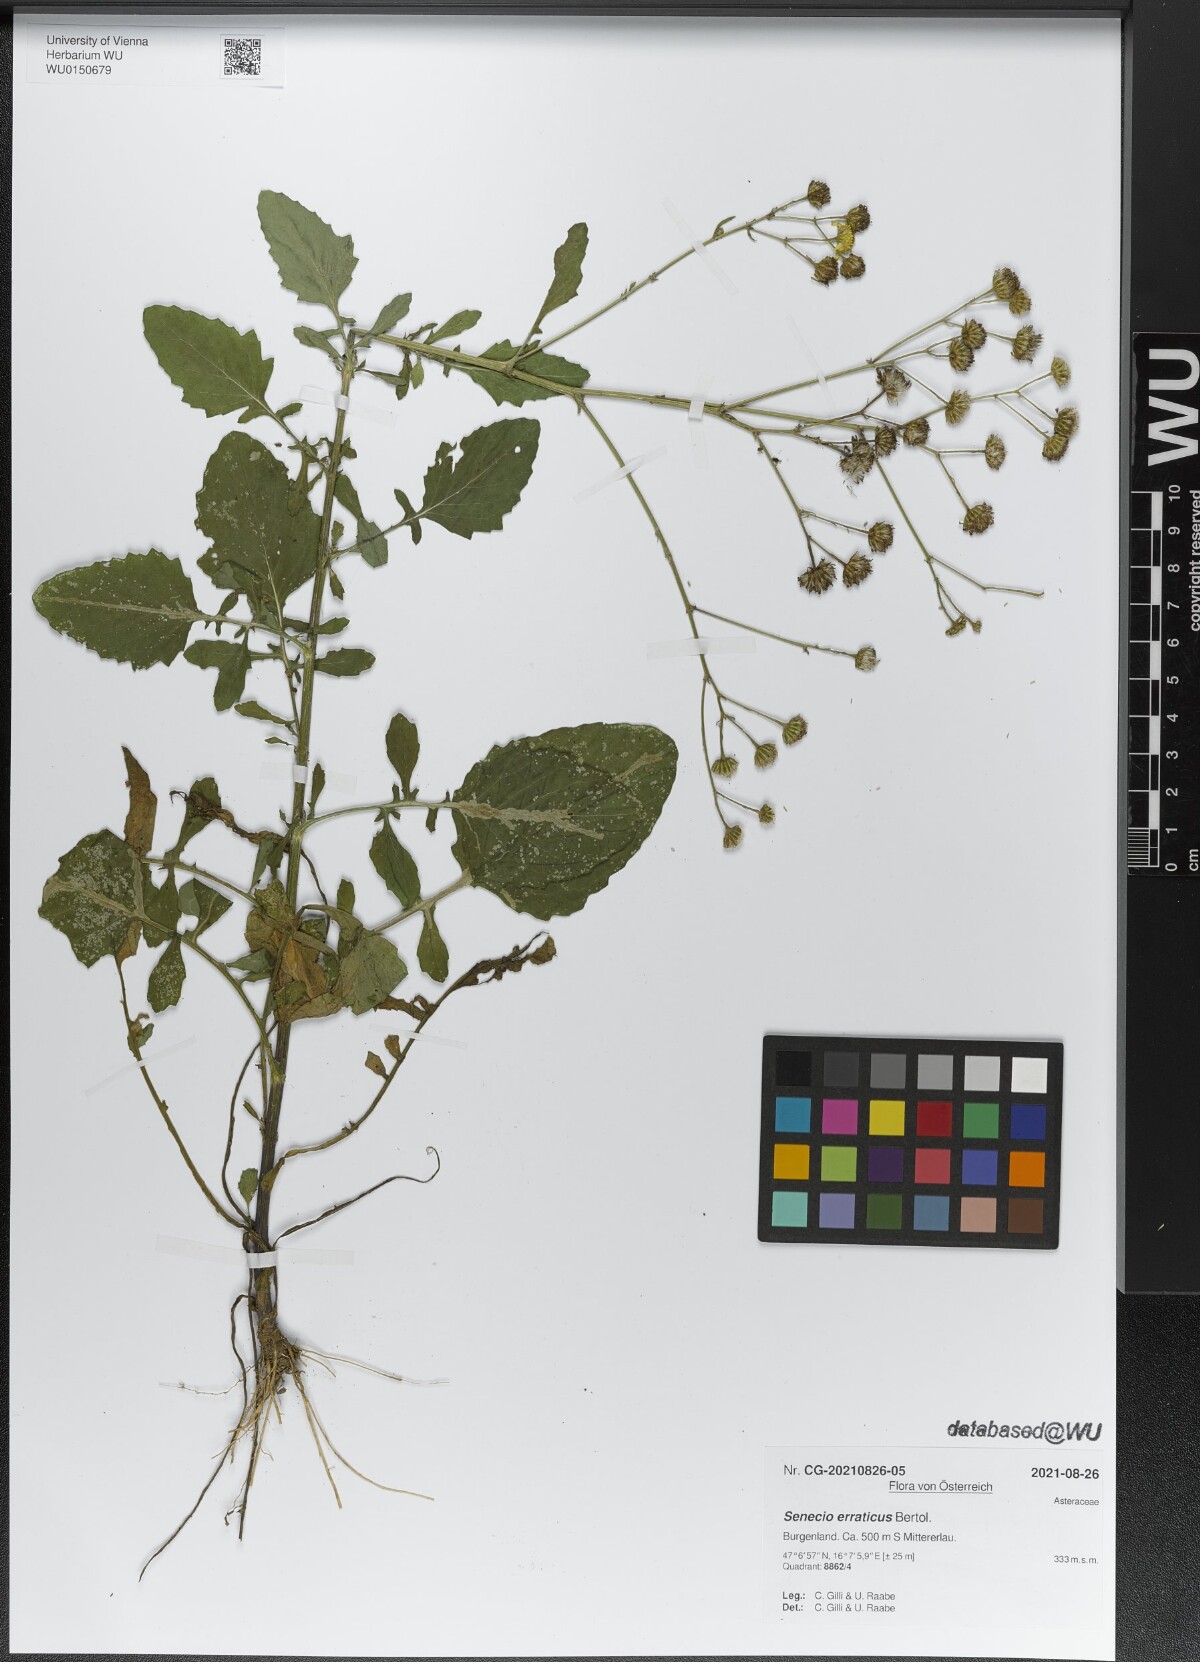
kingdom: Plantae
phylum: Tracheophyta
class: Magnoliopsida
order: Asterales
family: Asteraceae
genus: Jacobaea
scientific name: Jacobaea erratica
